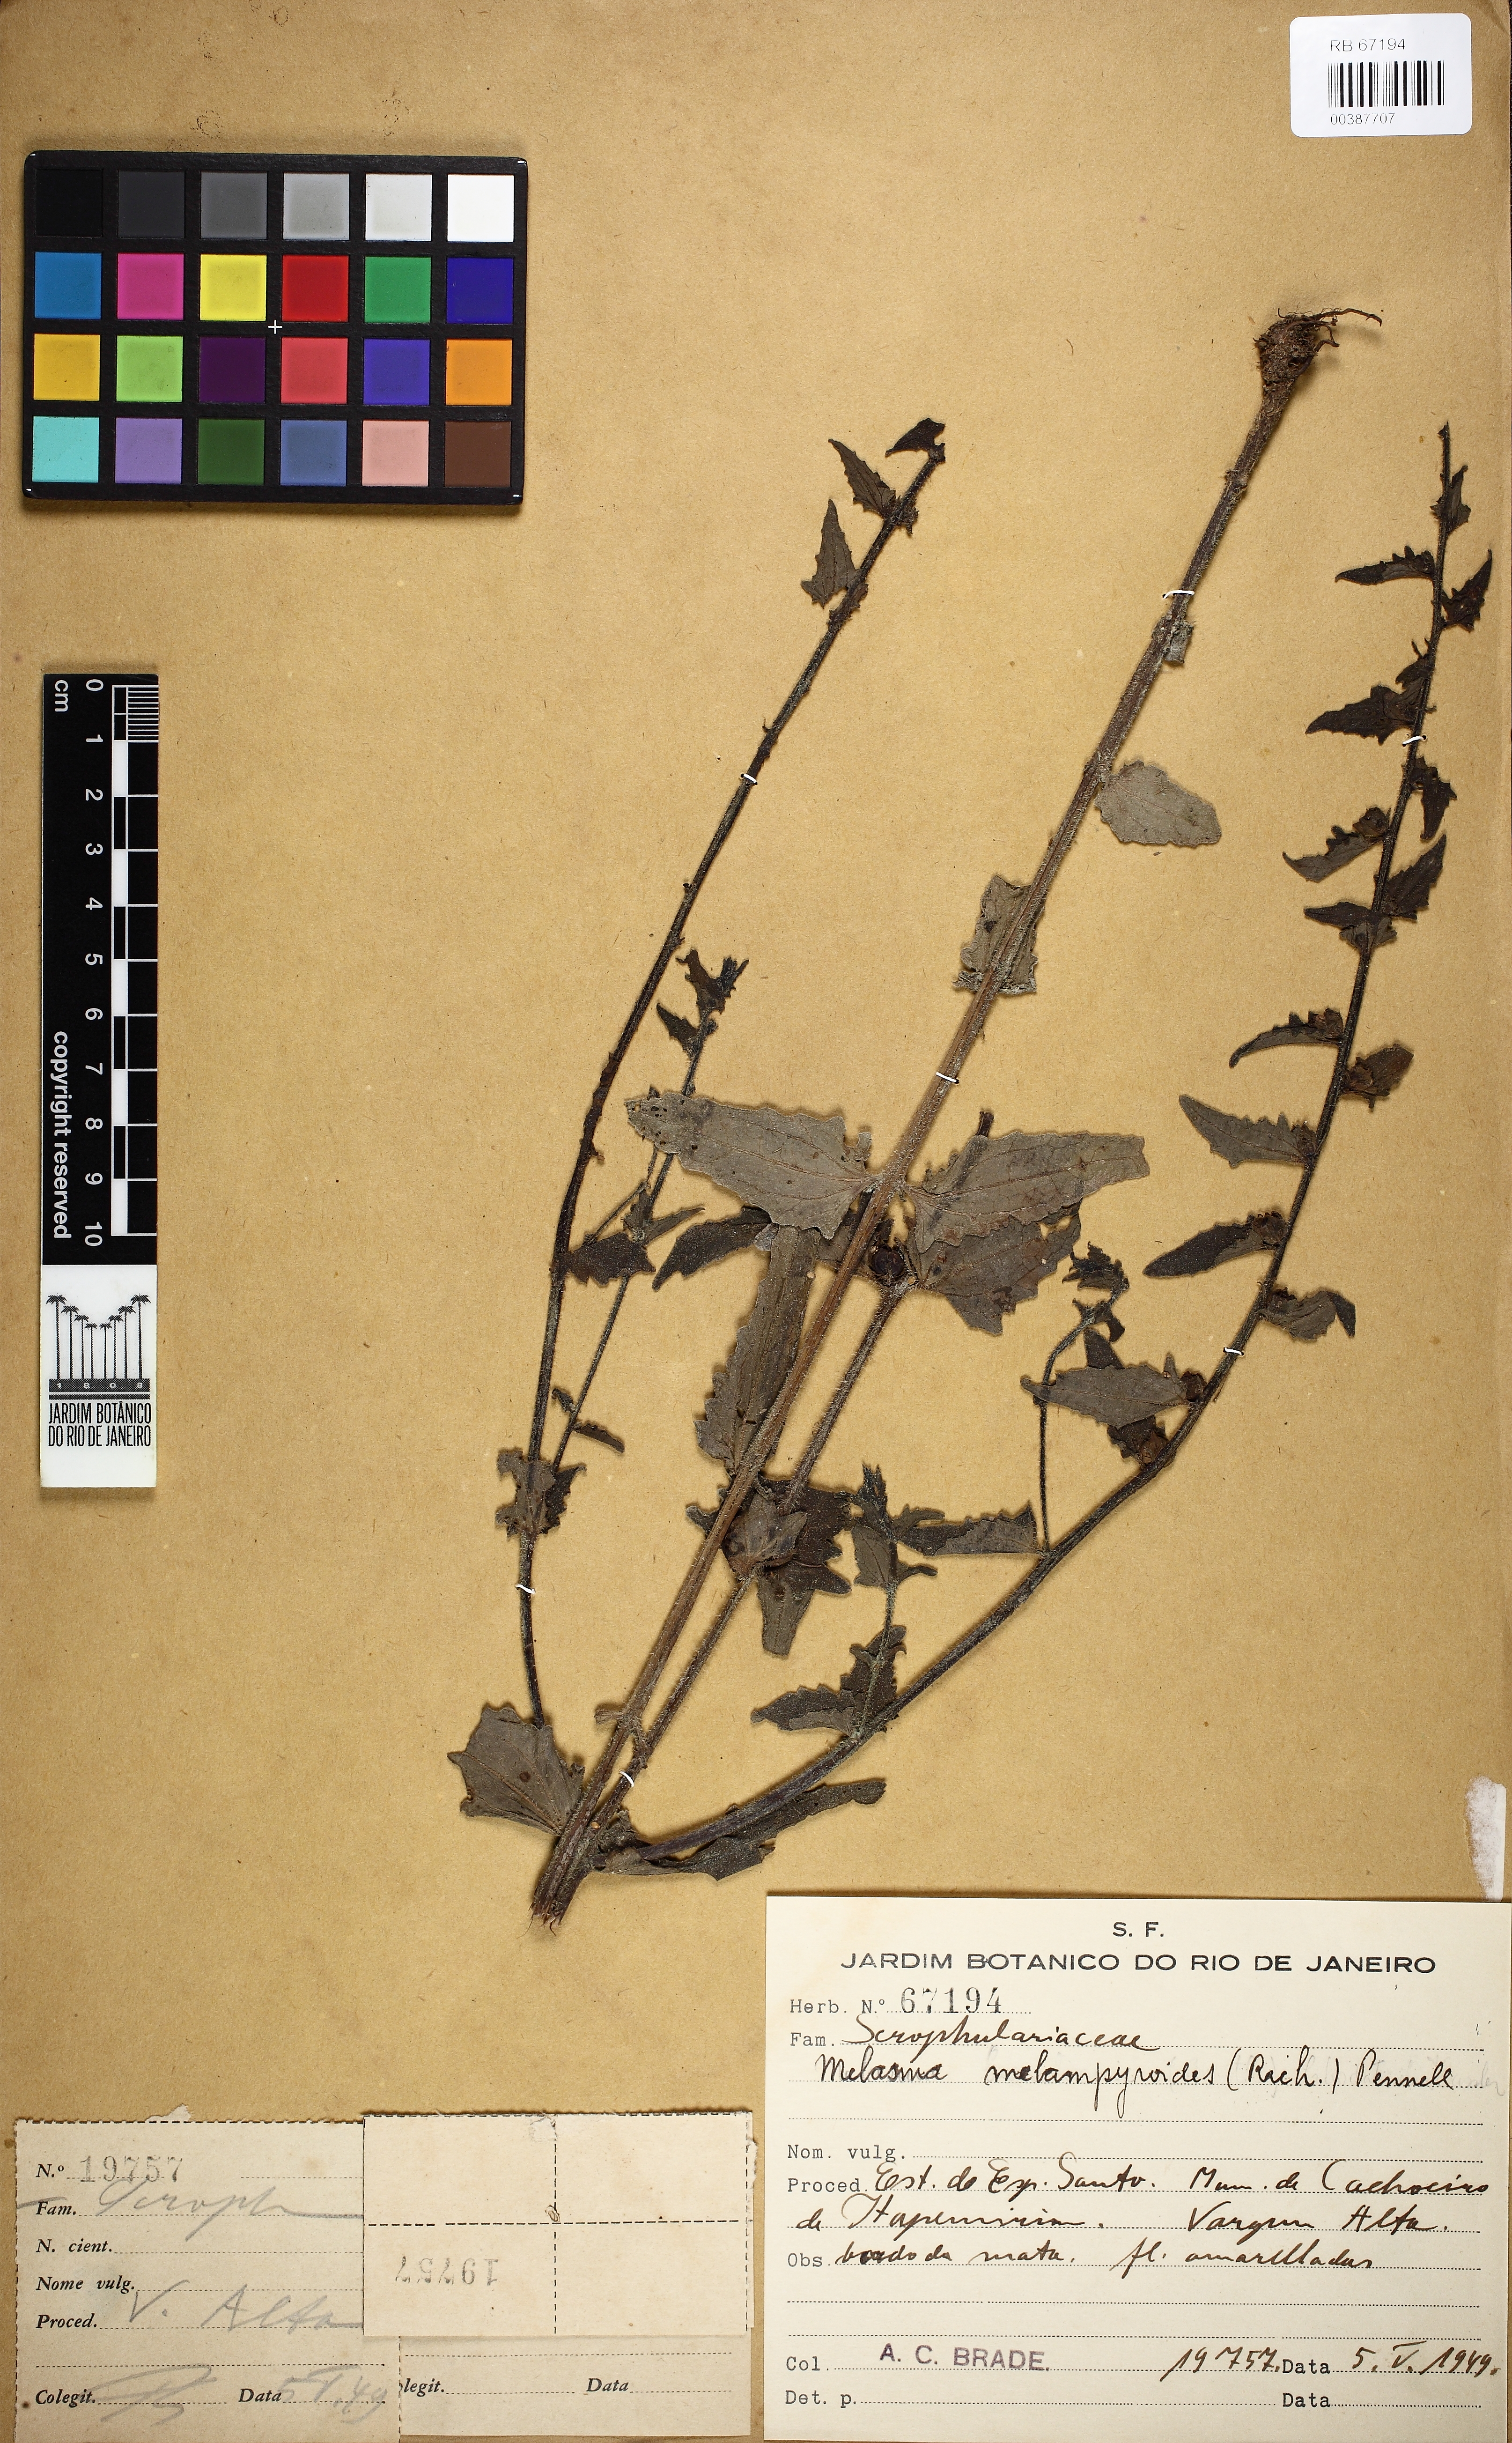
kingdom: Plantae
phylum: Tracheophyta
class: Magnoliopsida
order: Lamiales
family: Orobanchaceae
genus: Melasma
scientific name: Melasma melampyroides
